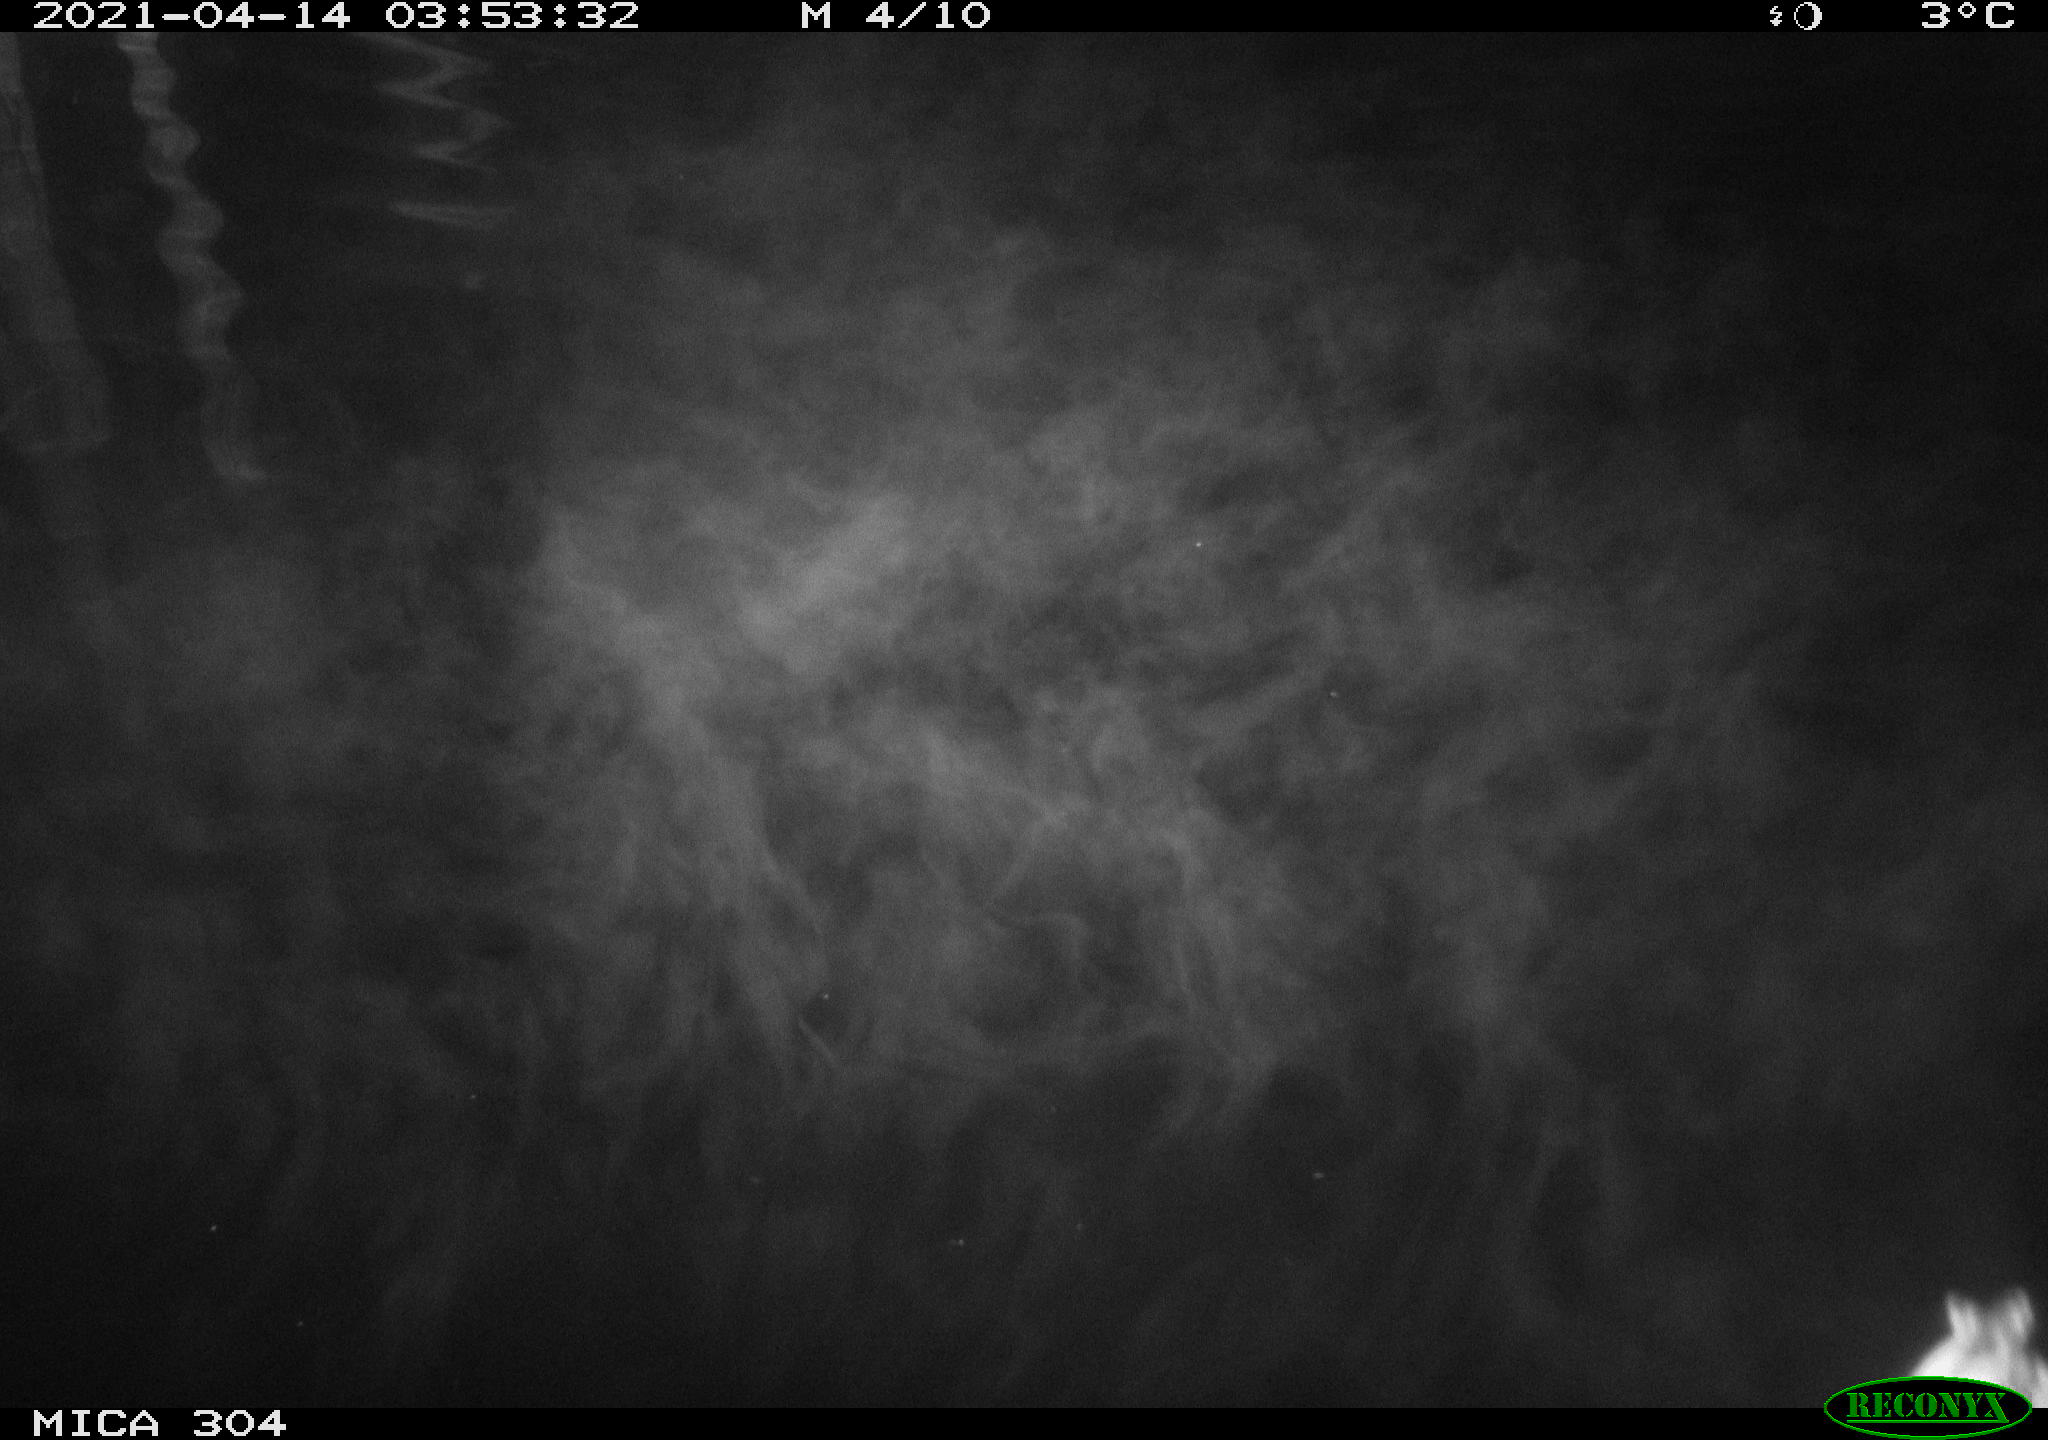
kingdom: Animalia
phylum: Chordata
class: Aves
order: Anseriformes
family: Anatidae
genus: Anas
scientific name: Anas
